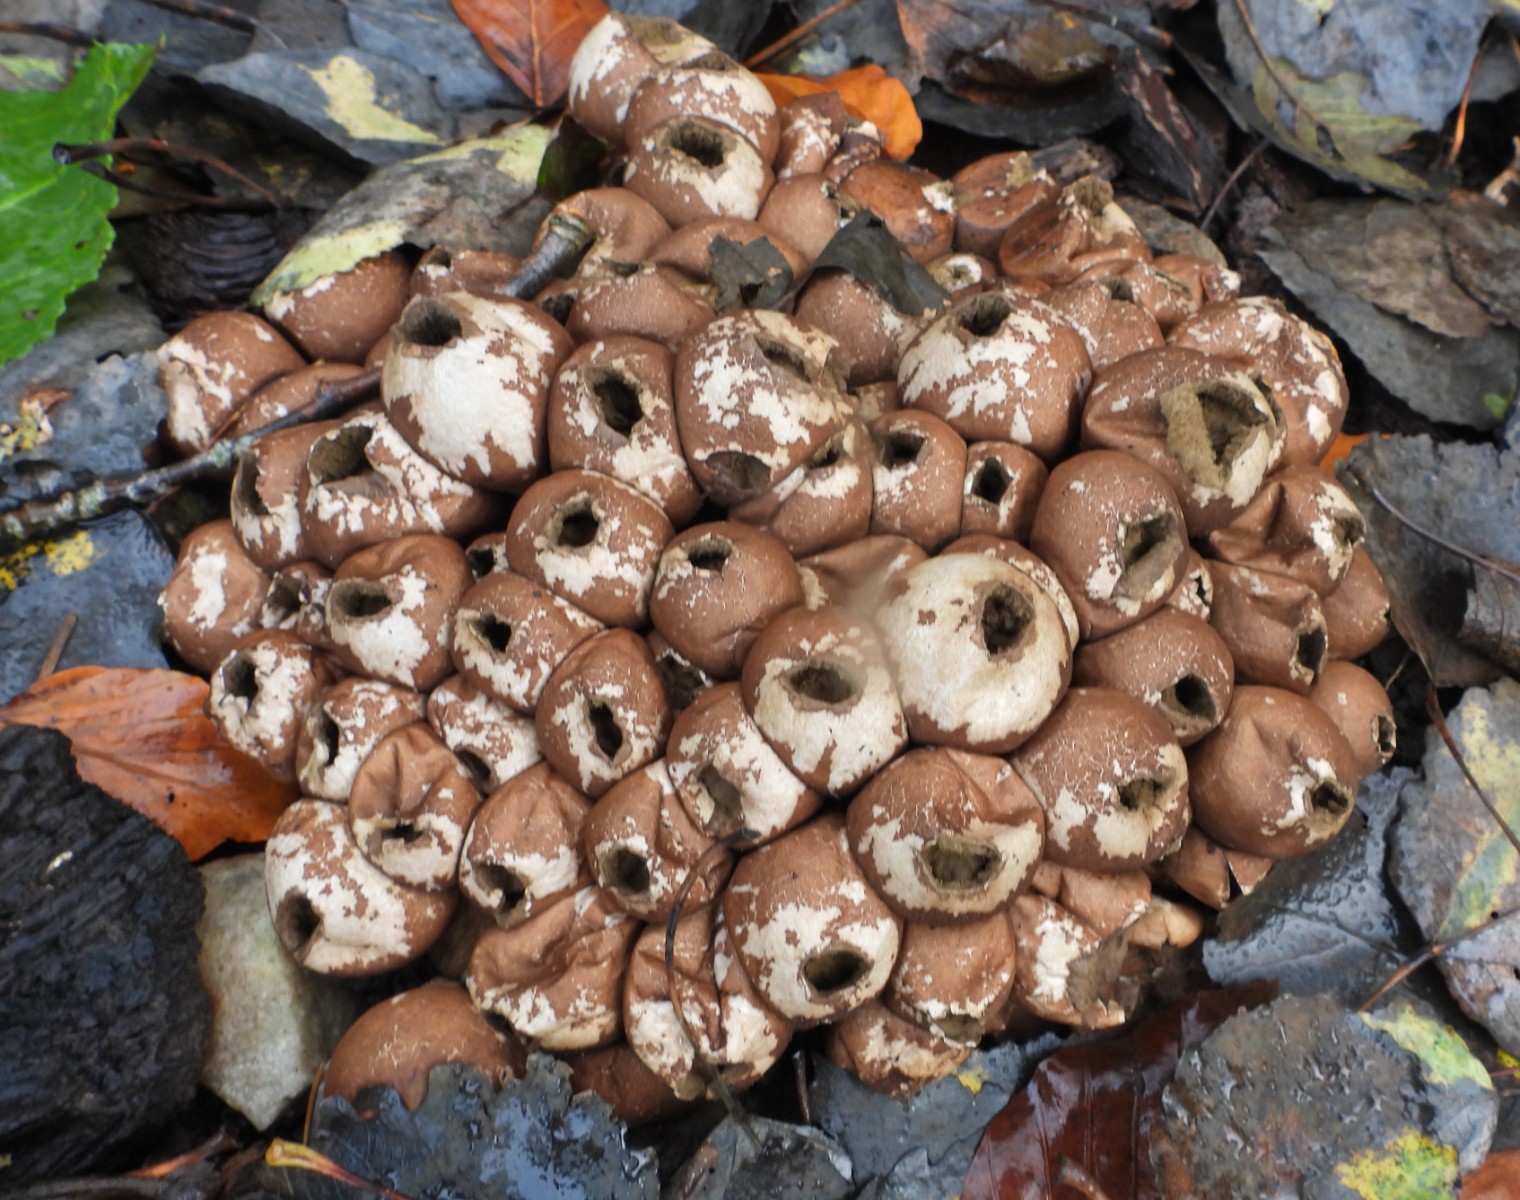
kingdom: Fungi
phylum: Basidiomycota
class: Agaricomycetes
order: Agaricales
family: Lycoperdaceae
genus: Apioperdon
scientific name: Apioperdon pyriforme
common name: pære-støvbold
